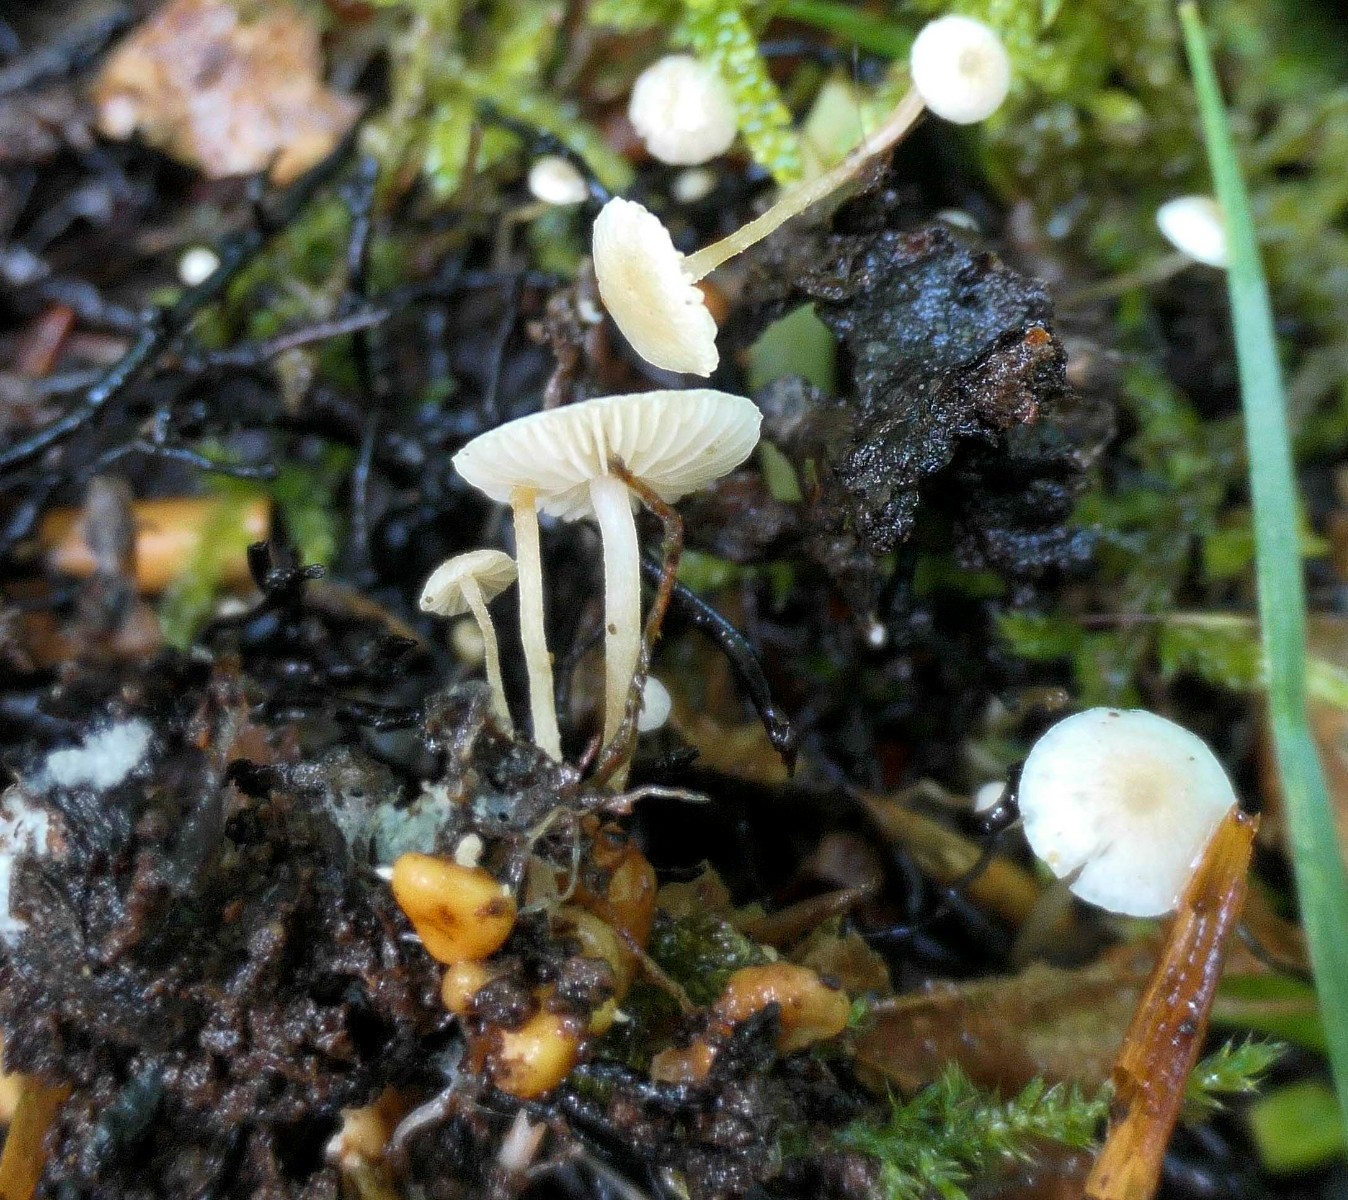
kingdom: Fungi
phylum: Basidiomycota
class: Agaricomycetes
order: Agaricales
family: Tricholomataceae
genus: Collybia
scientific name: Collybia cookei
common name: gulknoldet lighat
